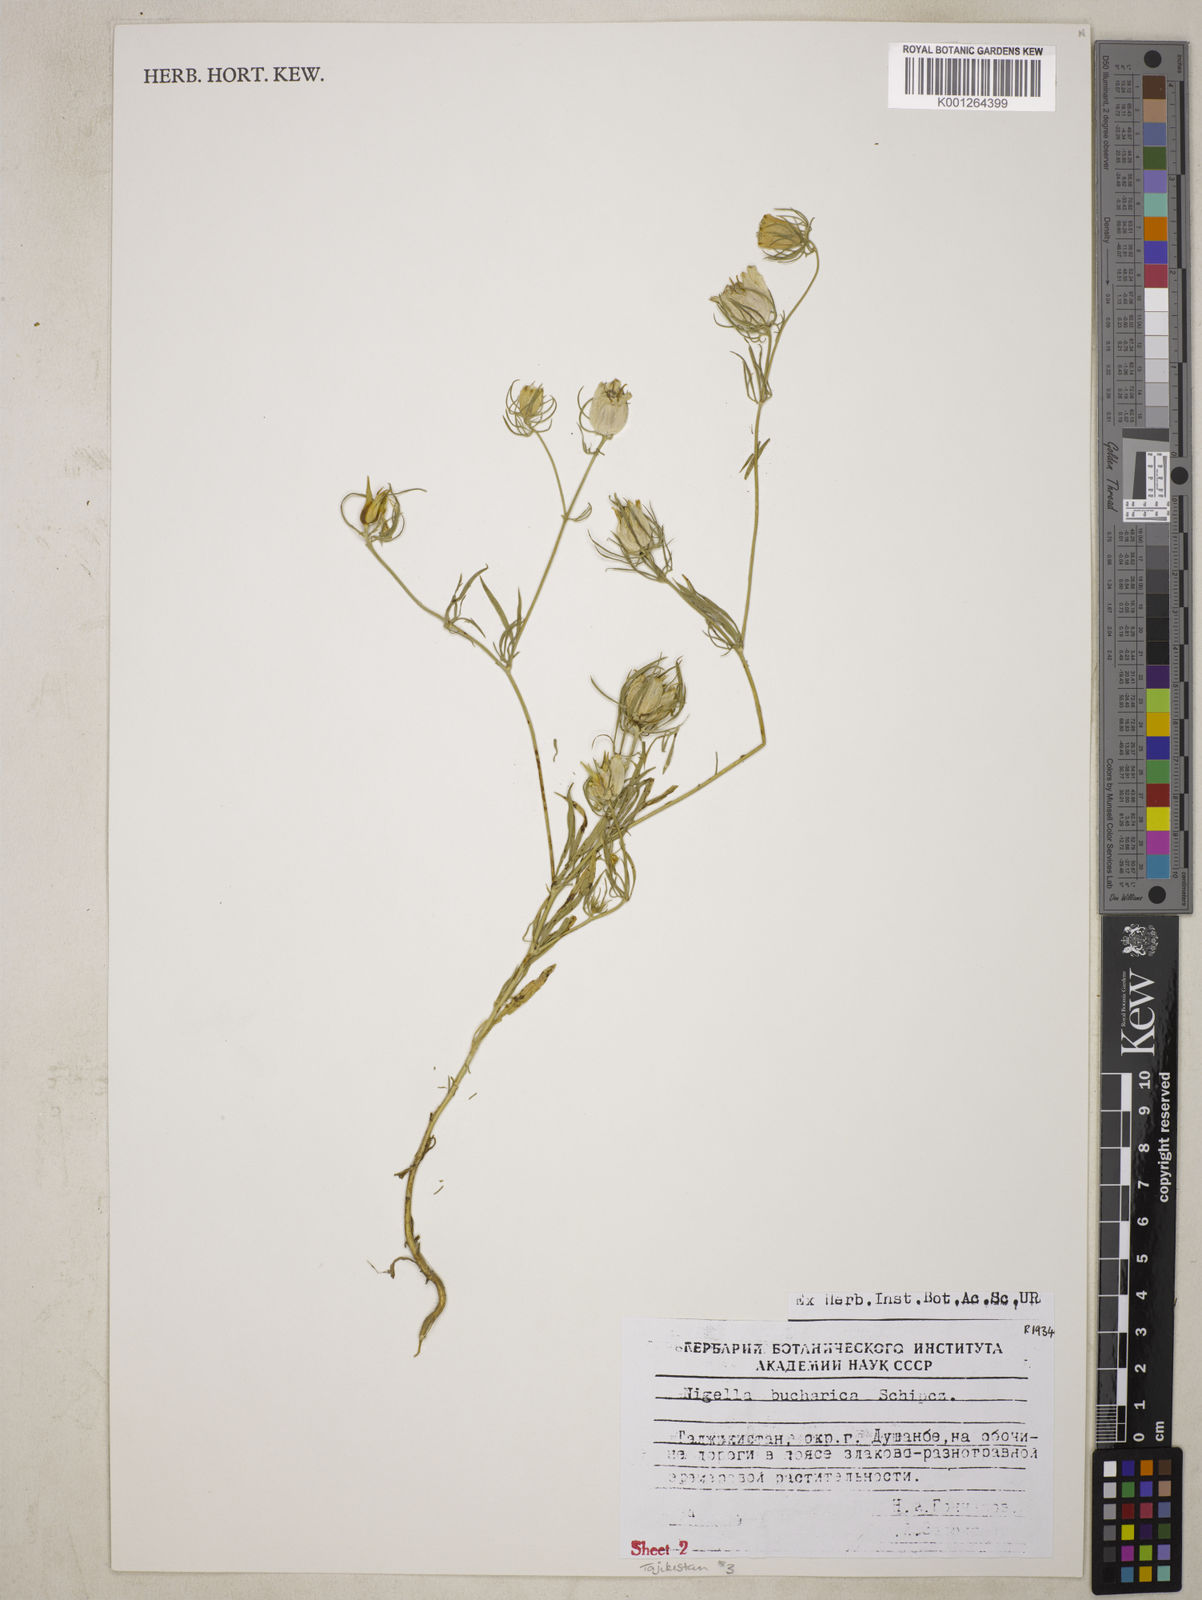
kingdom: Plantae
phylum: Tracheophyta
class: Magnoliopsida
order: Ranunculales
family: Ranunculaceae
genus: Komaroffia
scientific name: Komaroffia bucharica
